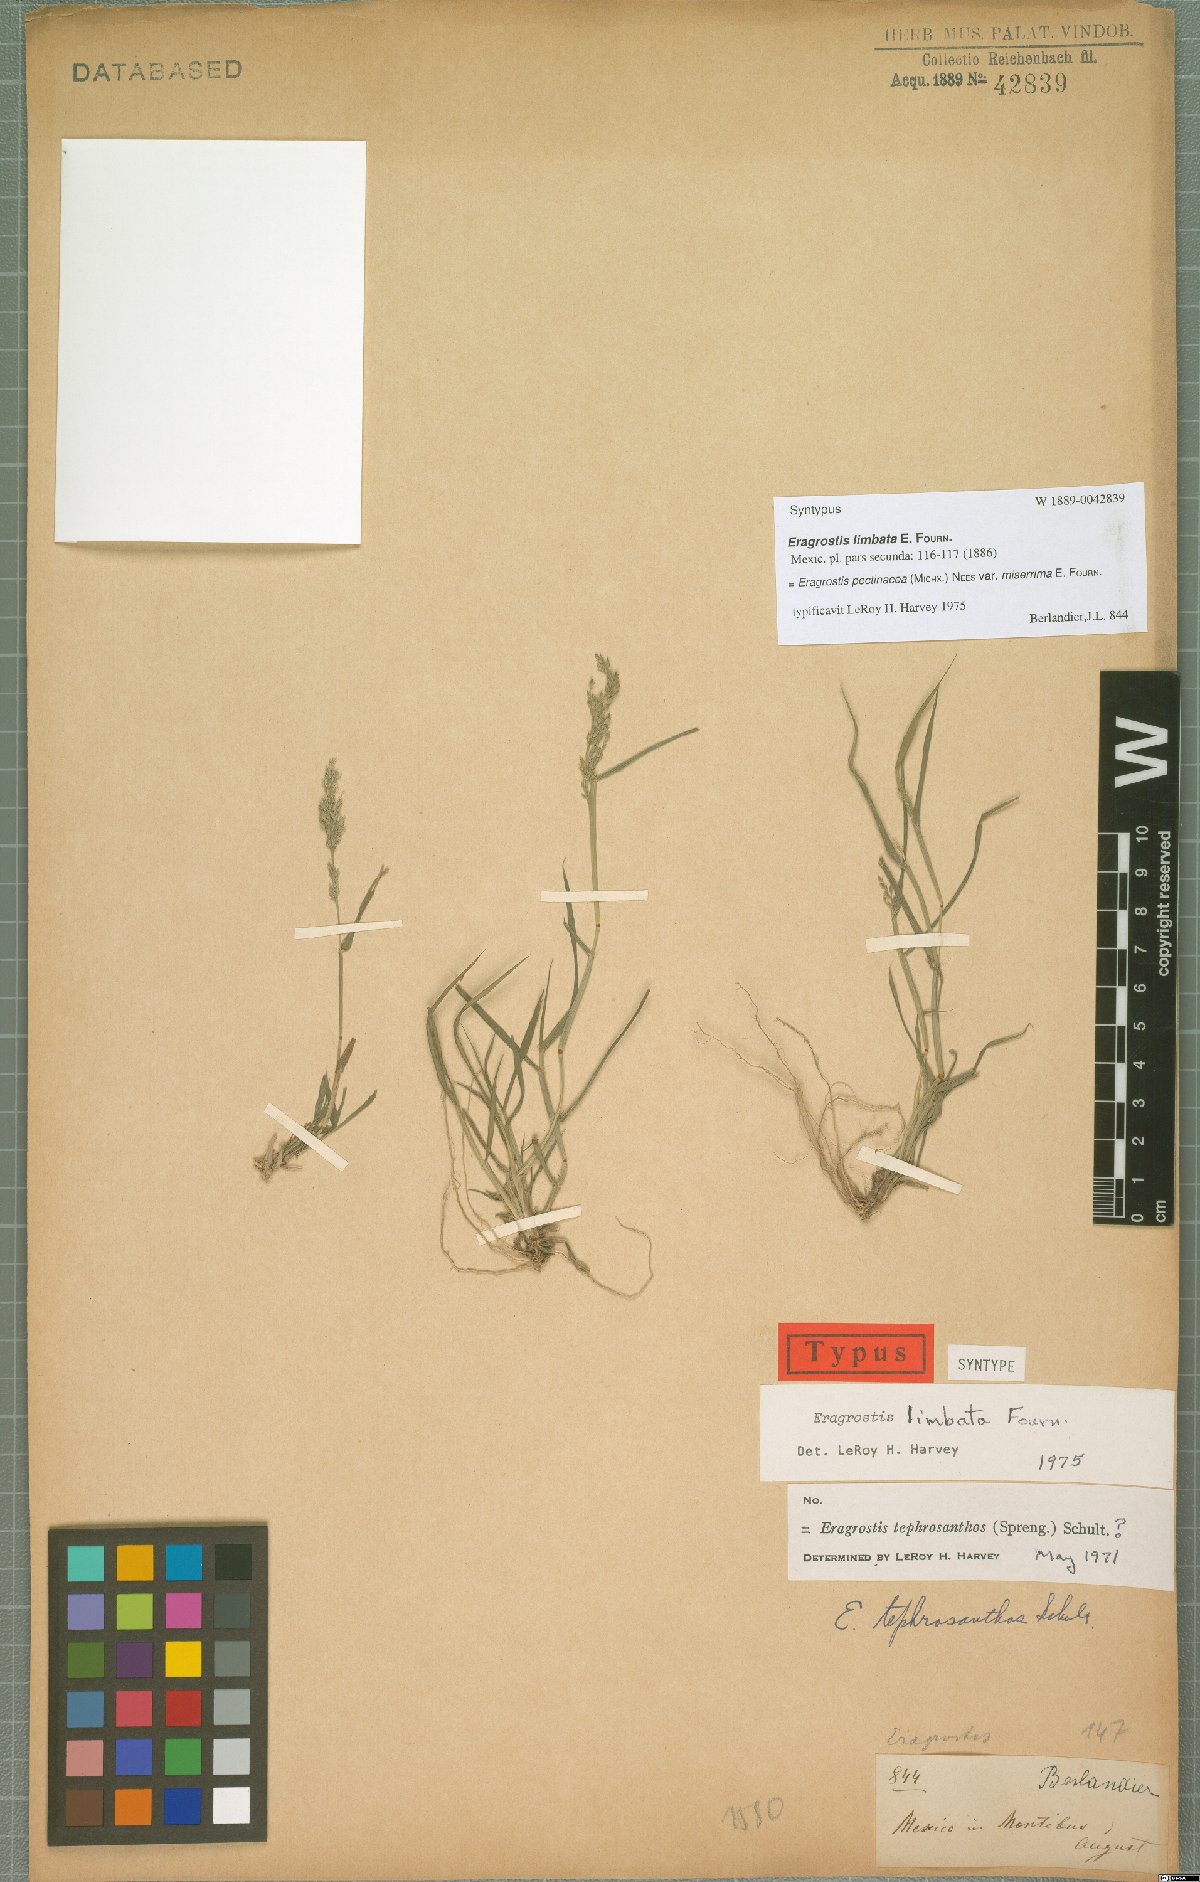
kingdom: Plantae
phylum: Tracheophyta
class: Liliopsida
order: Poales
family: Poaceae
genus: Eragrostis
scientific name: Eragrostis tephrosanthos
